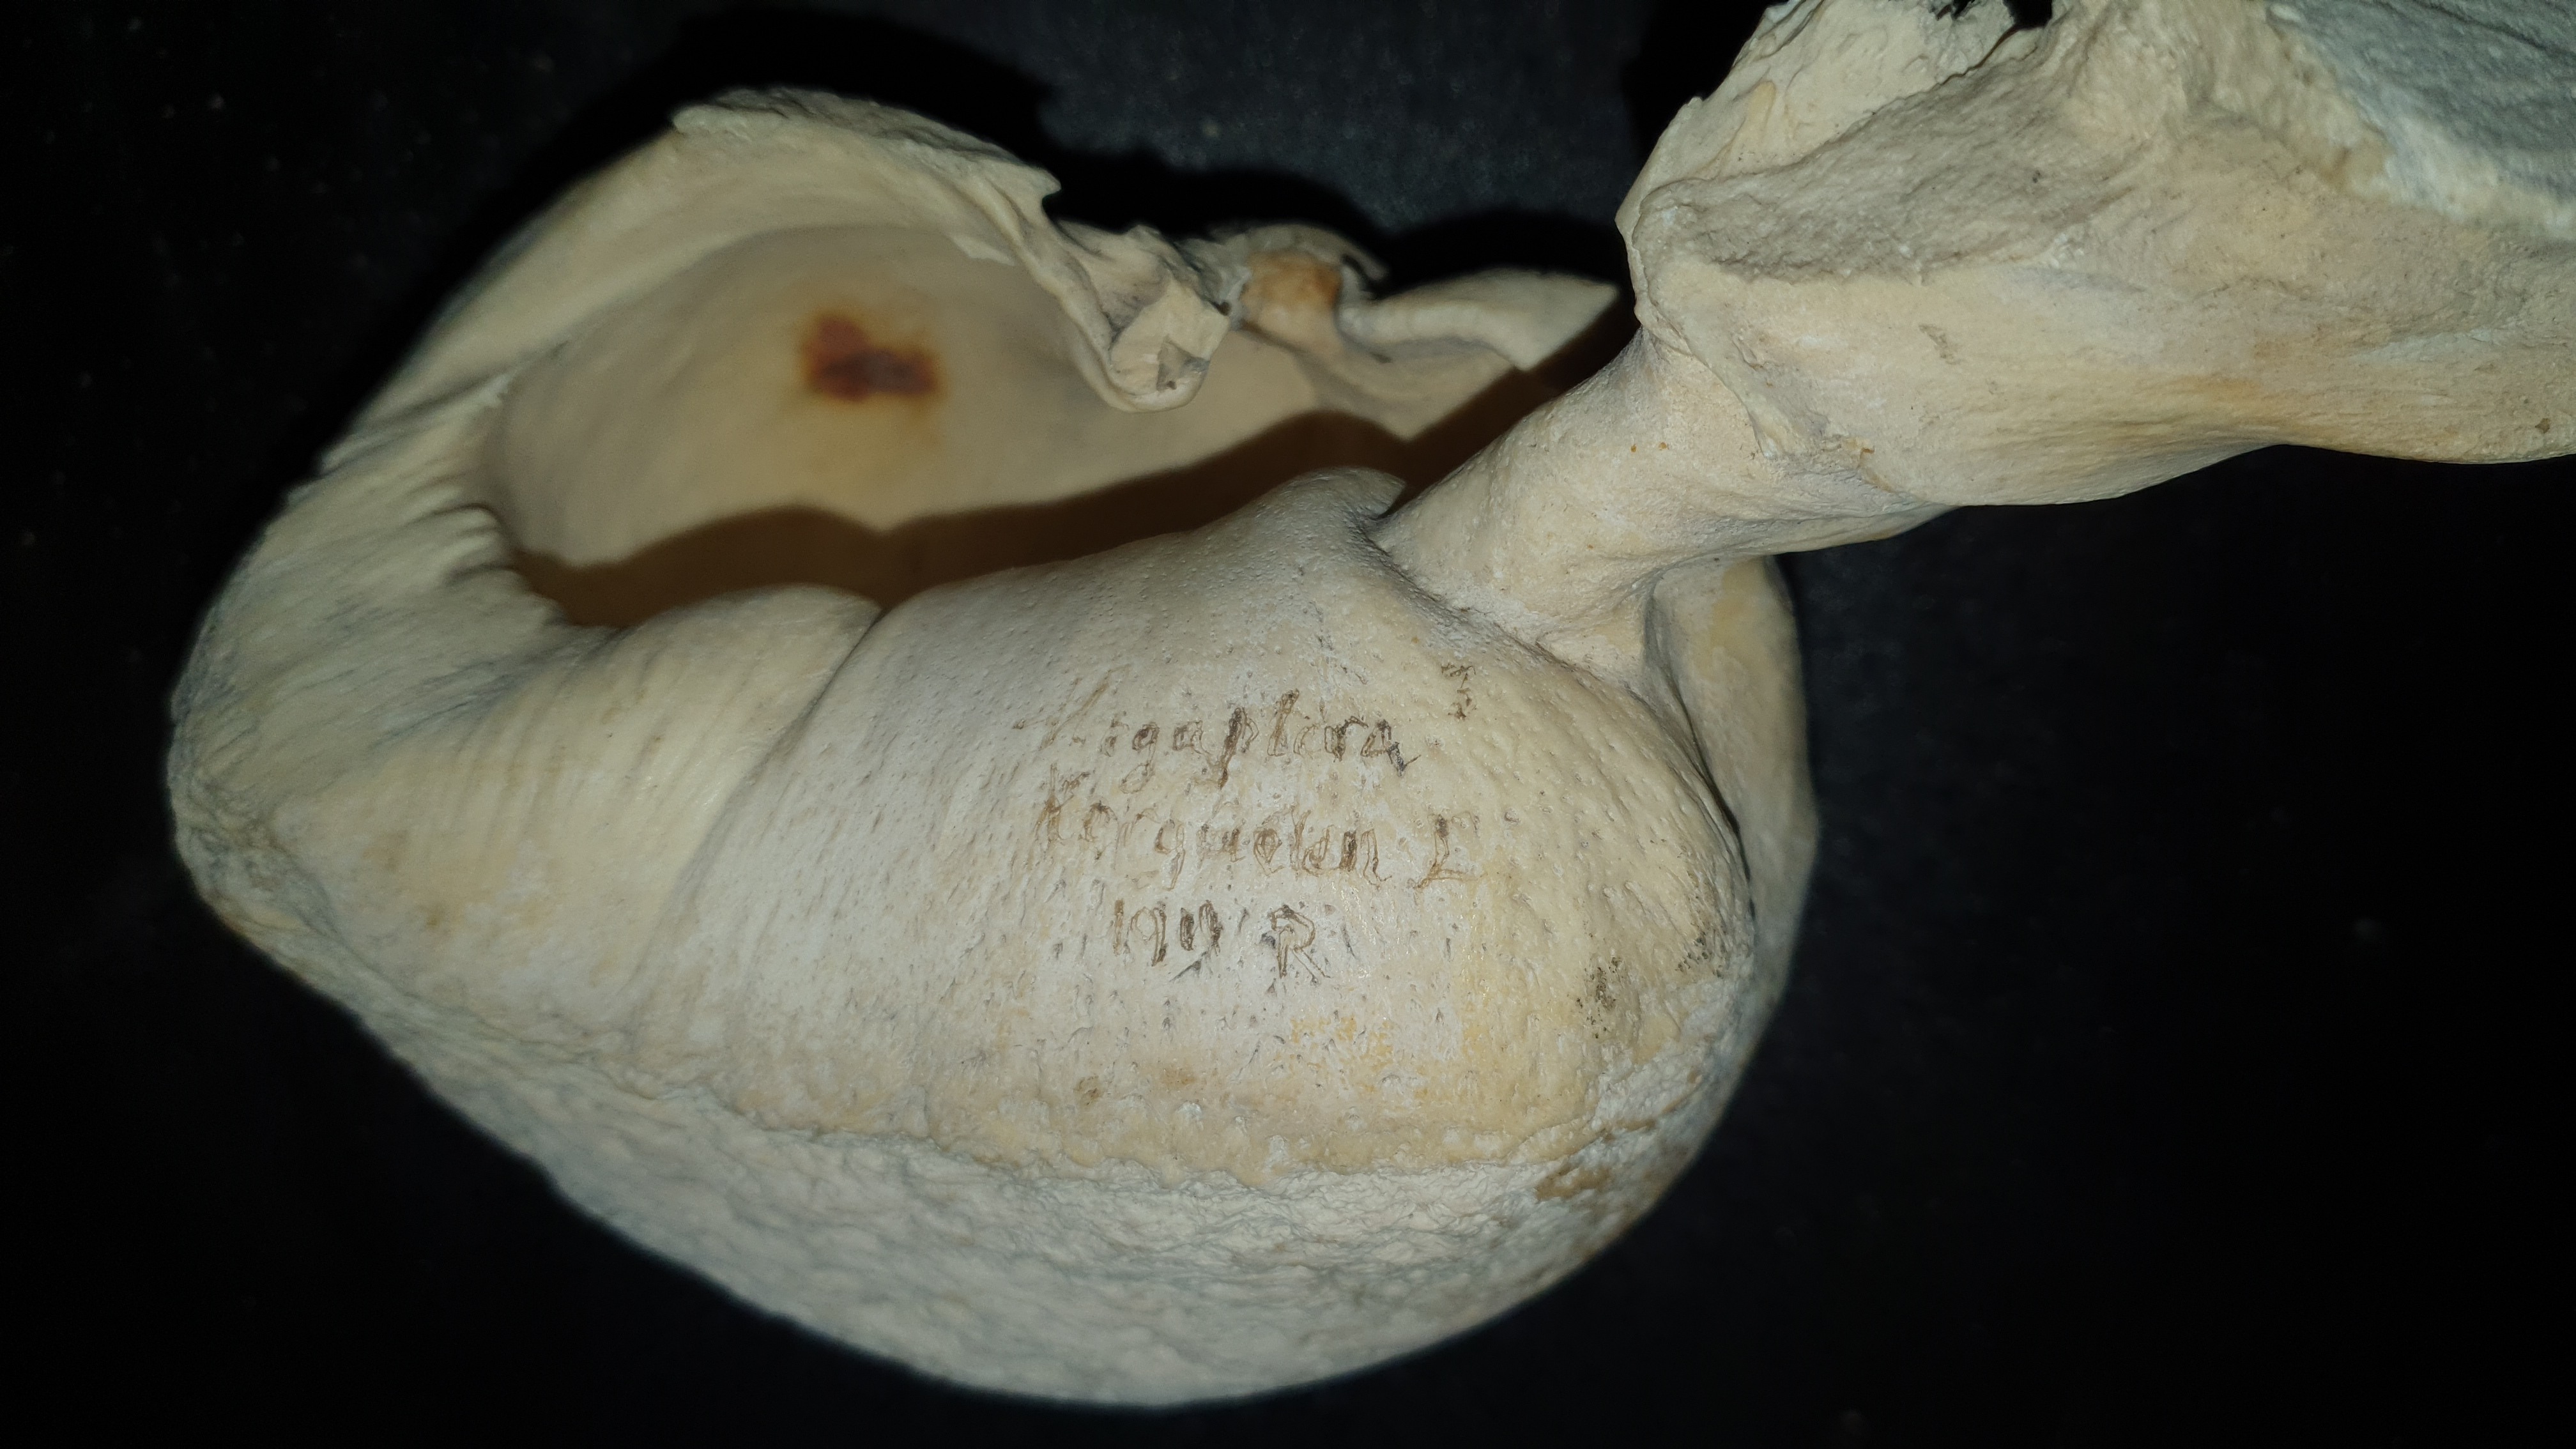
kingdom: Animalia
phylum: Chordata
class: Mammalia
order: Cetacea
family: Balaenopteridae
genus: Megaptera
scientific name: Megaptera novaeangliae
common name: Humpback whale
